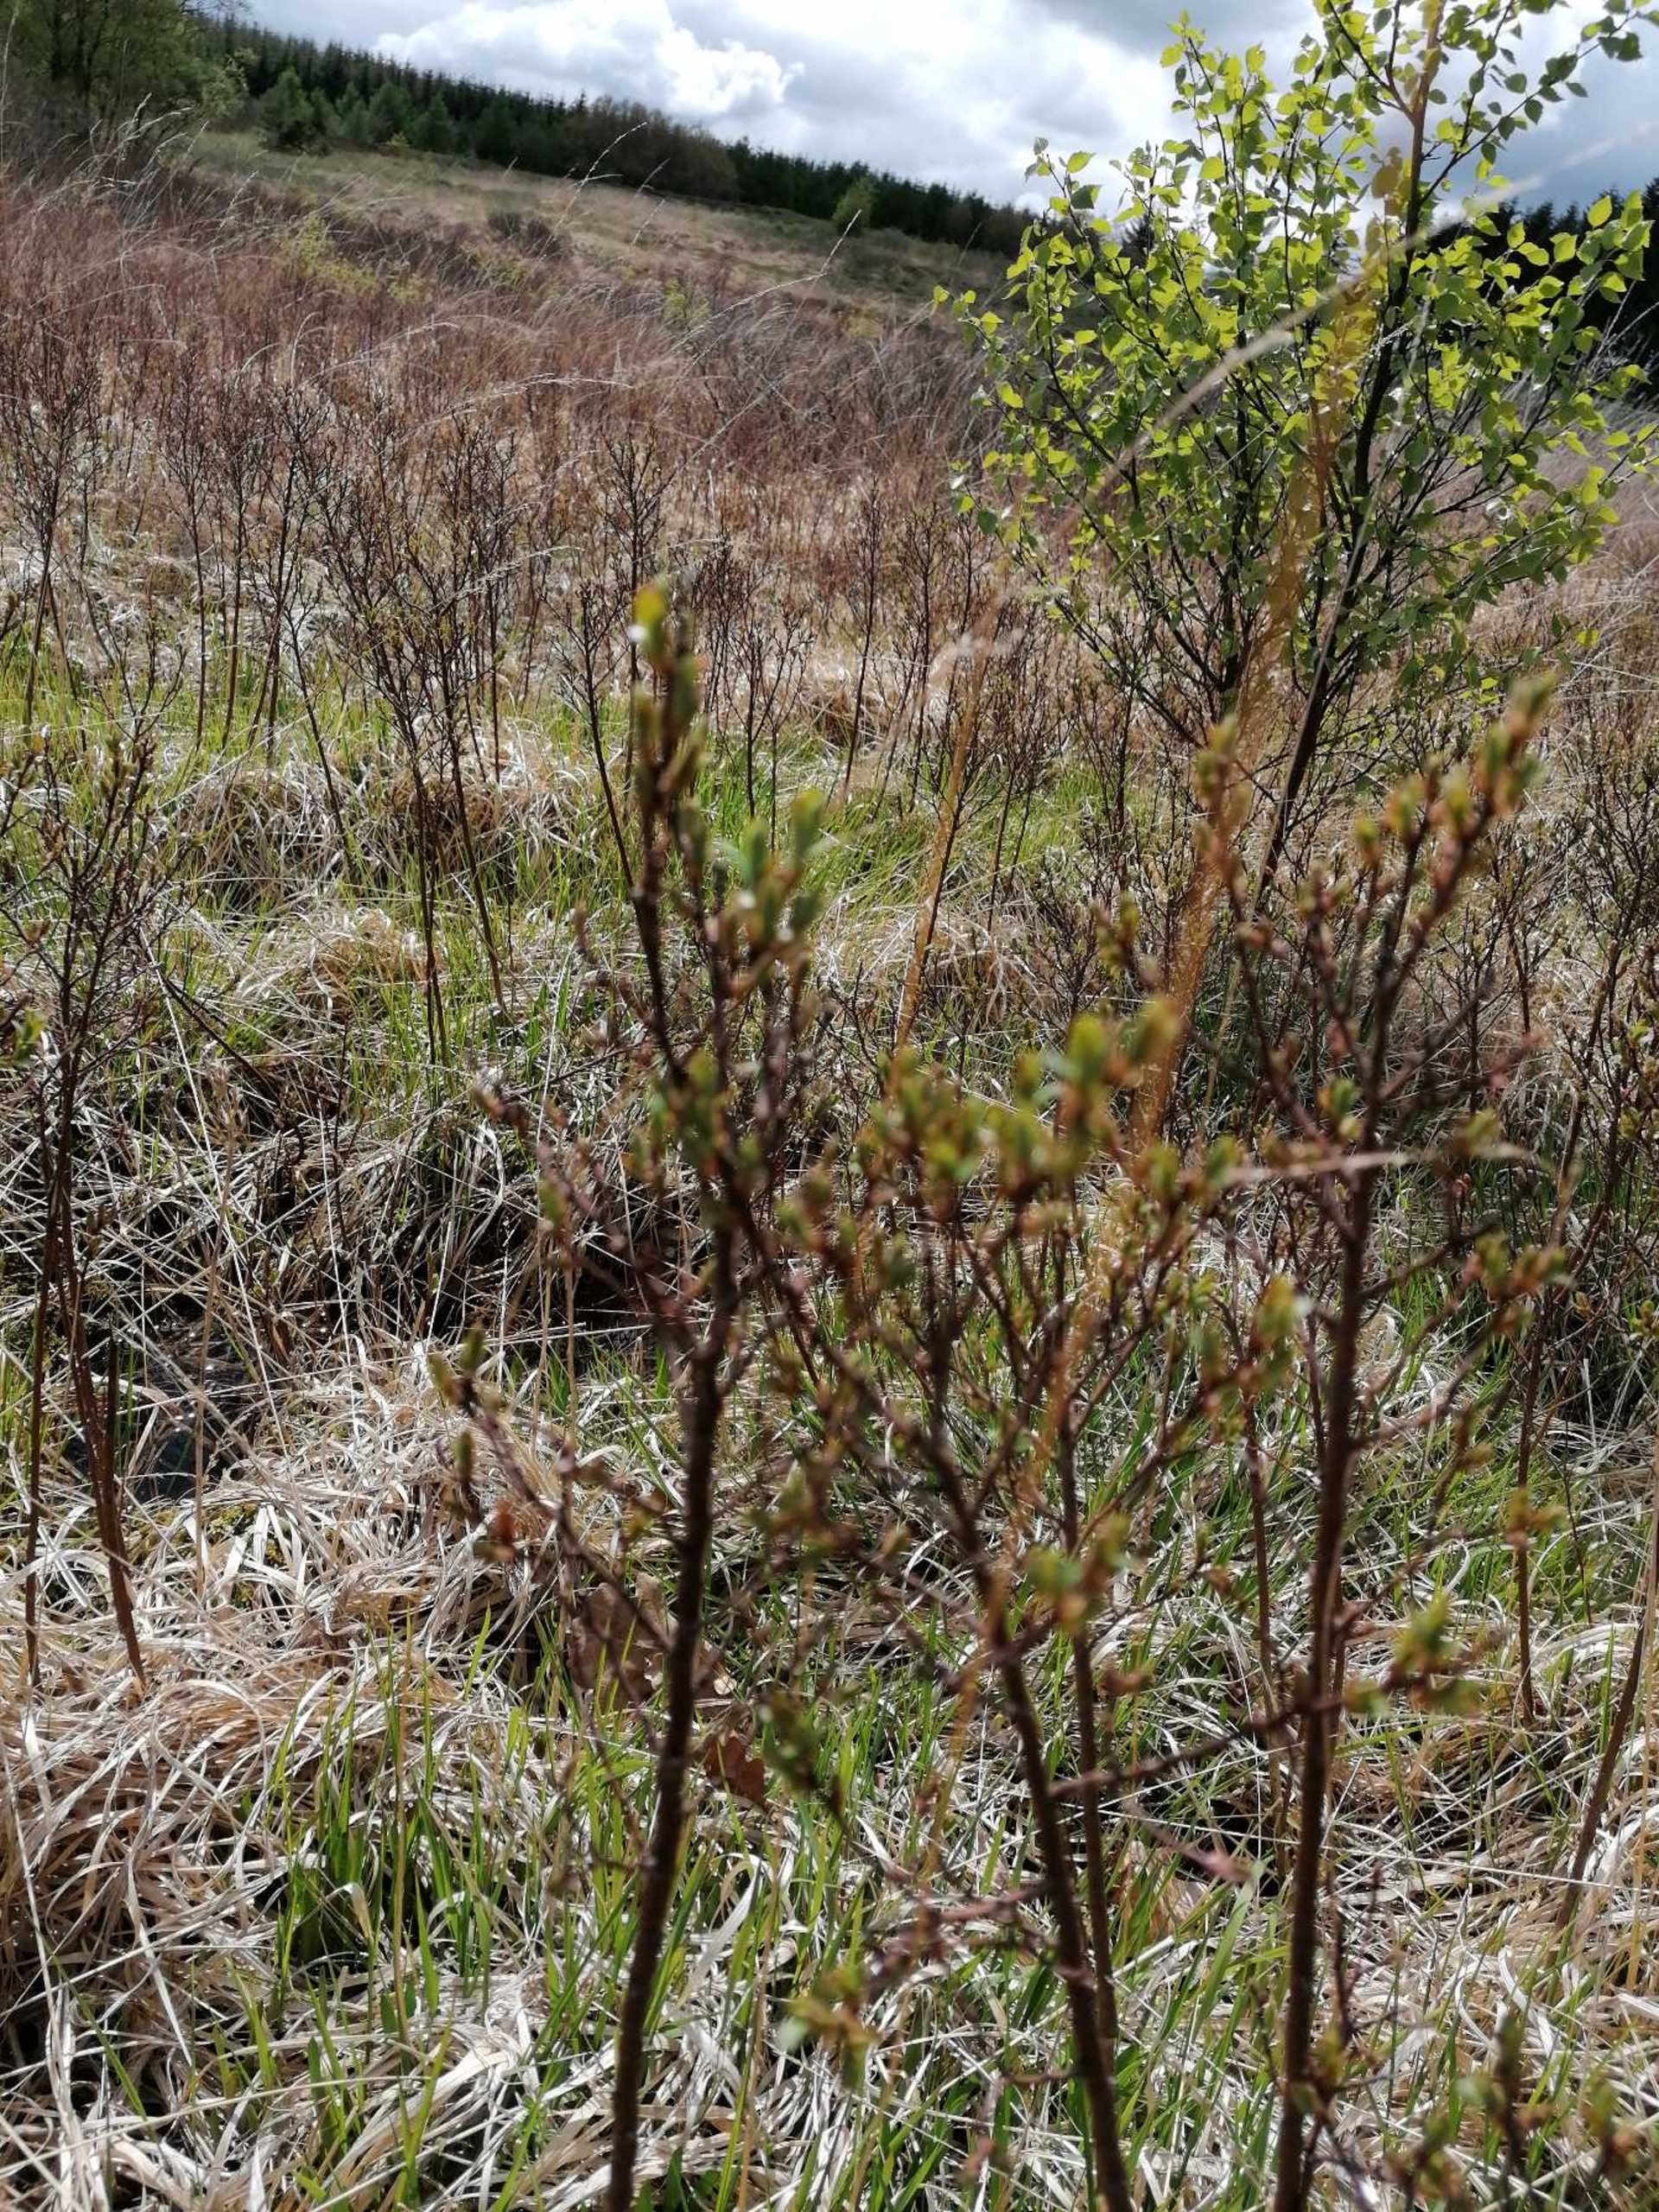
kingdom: Plantae
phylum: Tracheophyta
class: Magnoliopsida
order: Fagales
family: Myricaceae
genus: Myrica
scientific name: Myrica gale
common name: Pors
